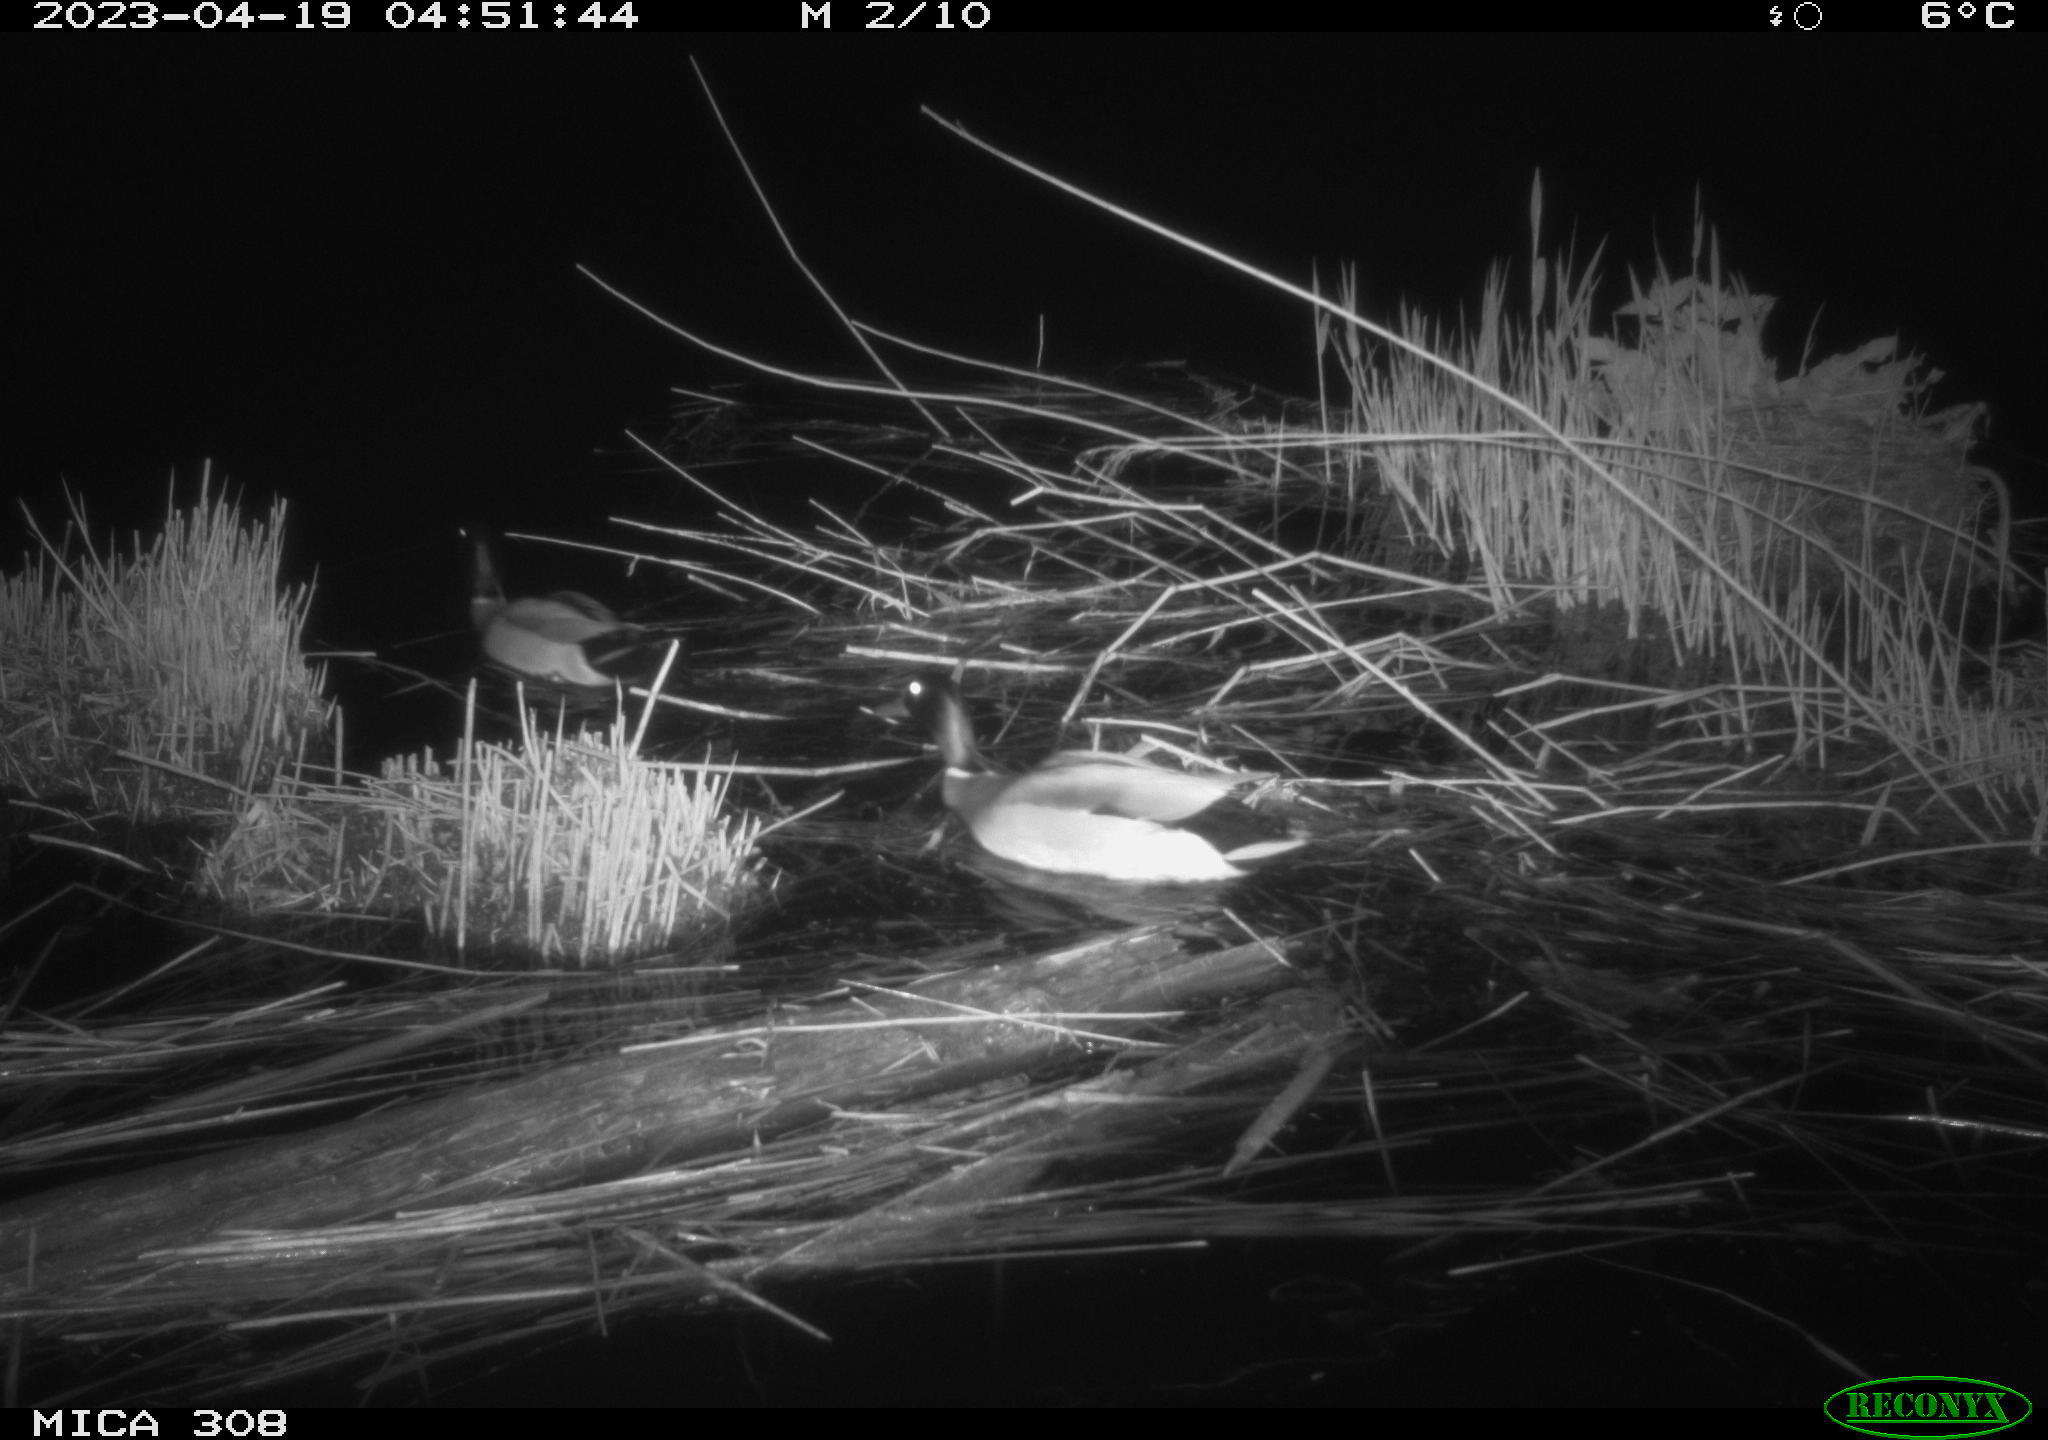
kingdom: Animalia
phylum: Chordata
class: Aves
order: Anseriformes
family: Anatidae
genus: Anas
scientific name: Anas
